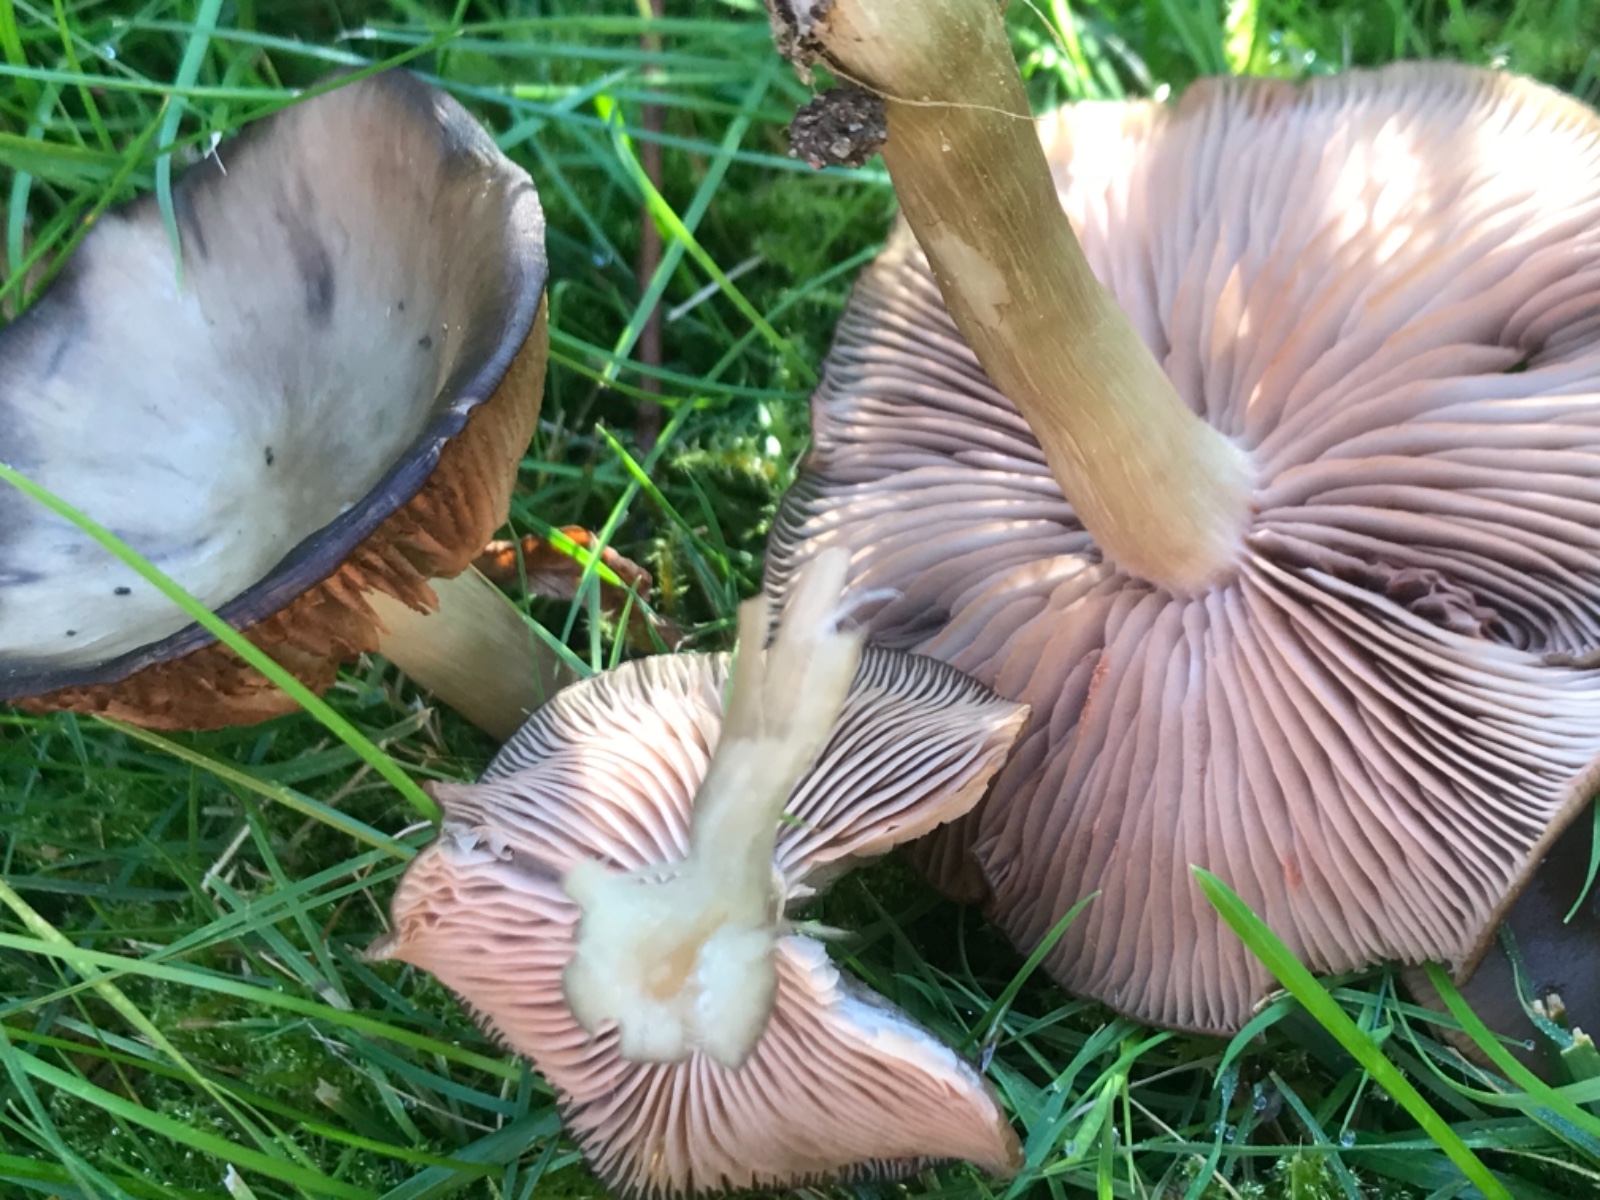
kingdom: Fungi
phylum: Basidiomycota
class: Agaricomycetes
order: Agaricales
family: Entolomataceae
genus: Entoloma
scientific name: Entoloma
